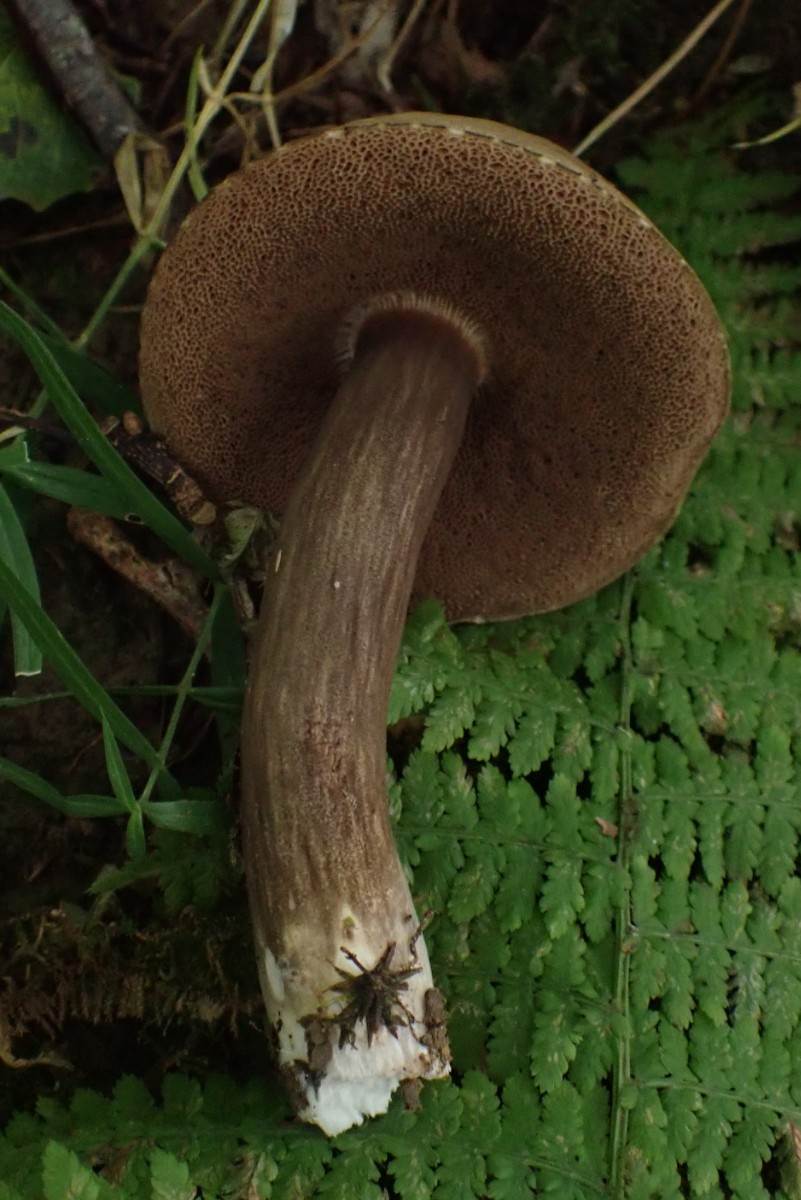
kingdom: Fungi
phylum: Basidiomycota
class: Agaricomycetes
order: Boletales
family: Boletaceae
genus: Porphyrellus
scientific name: Porphyrellus porphyrosporus
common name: sodrørhat
